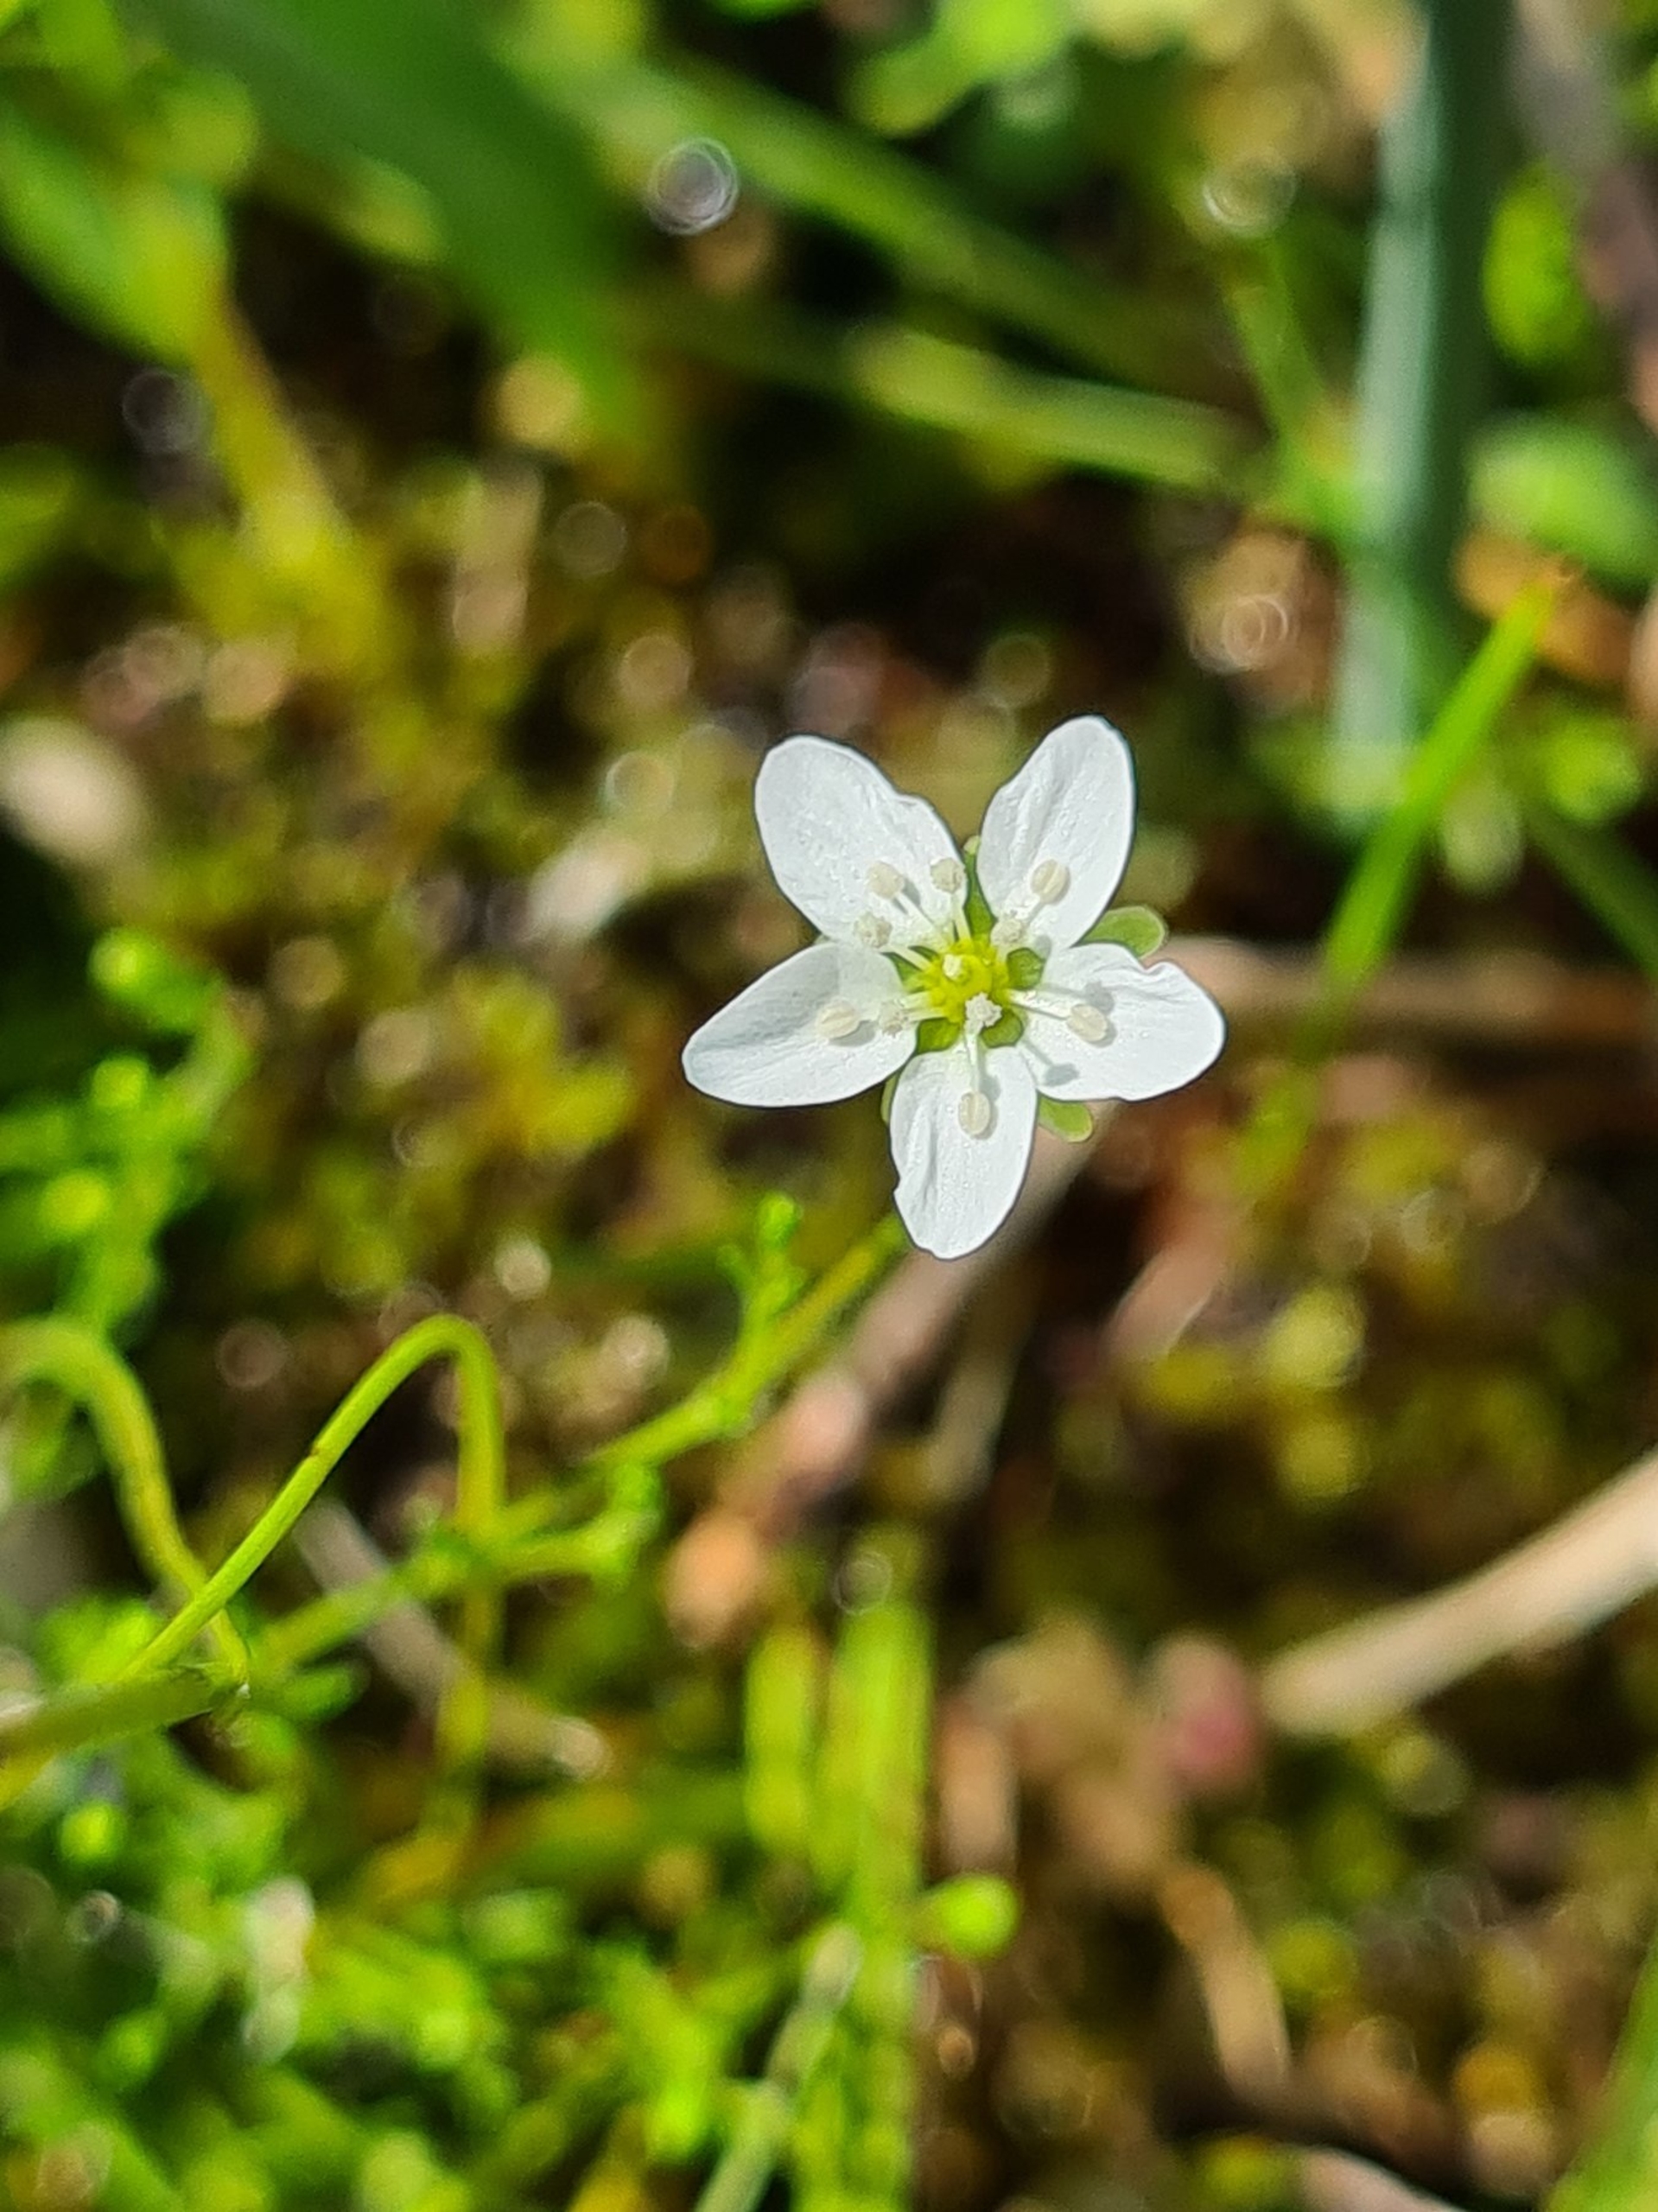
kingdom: Plantae
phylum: Tracheophyta
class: Magnoliopsida
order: Caryophyllales
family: Caryophyllaceae
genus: Sagina
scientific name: Sagina nodosa
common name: Knude-firling
